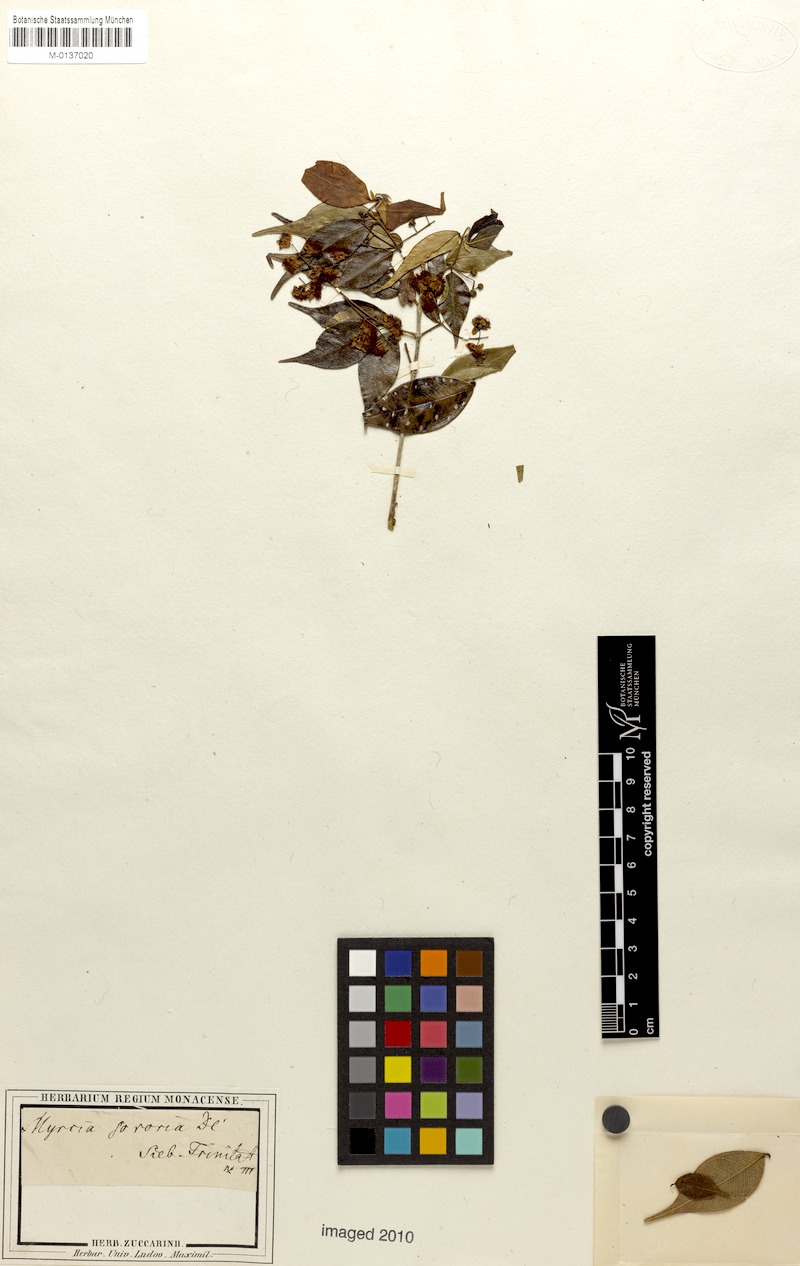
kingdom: Plantae
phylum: Tracheophyta
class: Magnoliopsida
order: Myrtales
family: Myrtaceae
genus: Myrcia
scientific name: Myrcia splendens
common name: Surinam cherry
